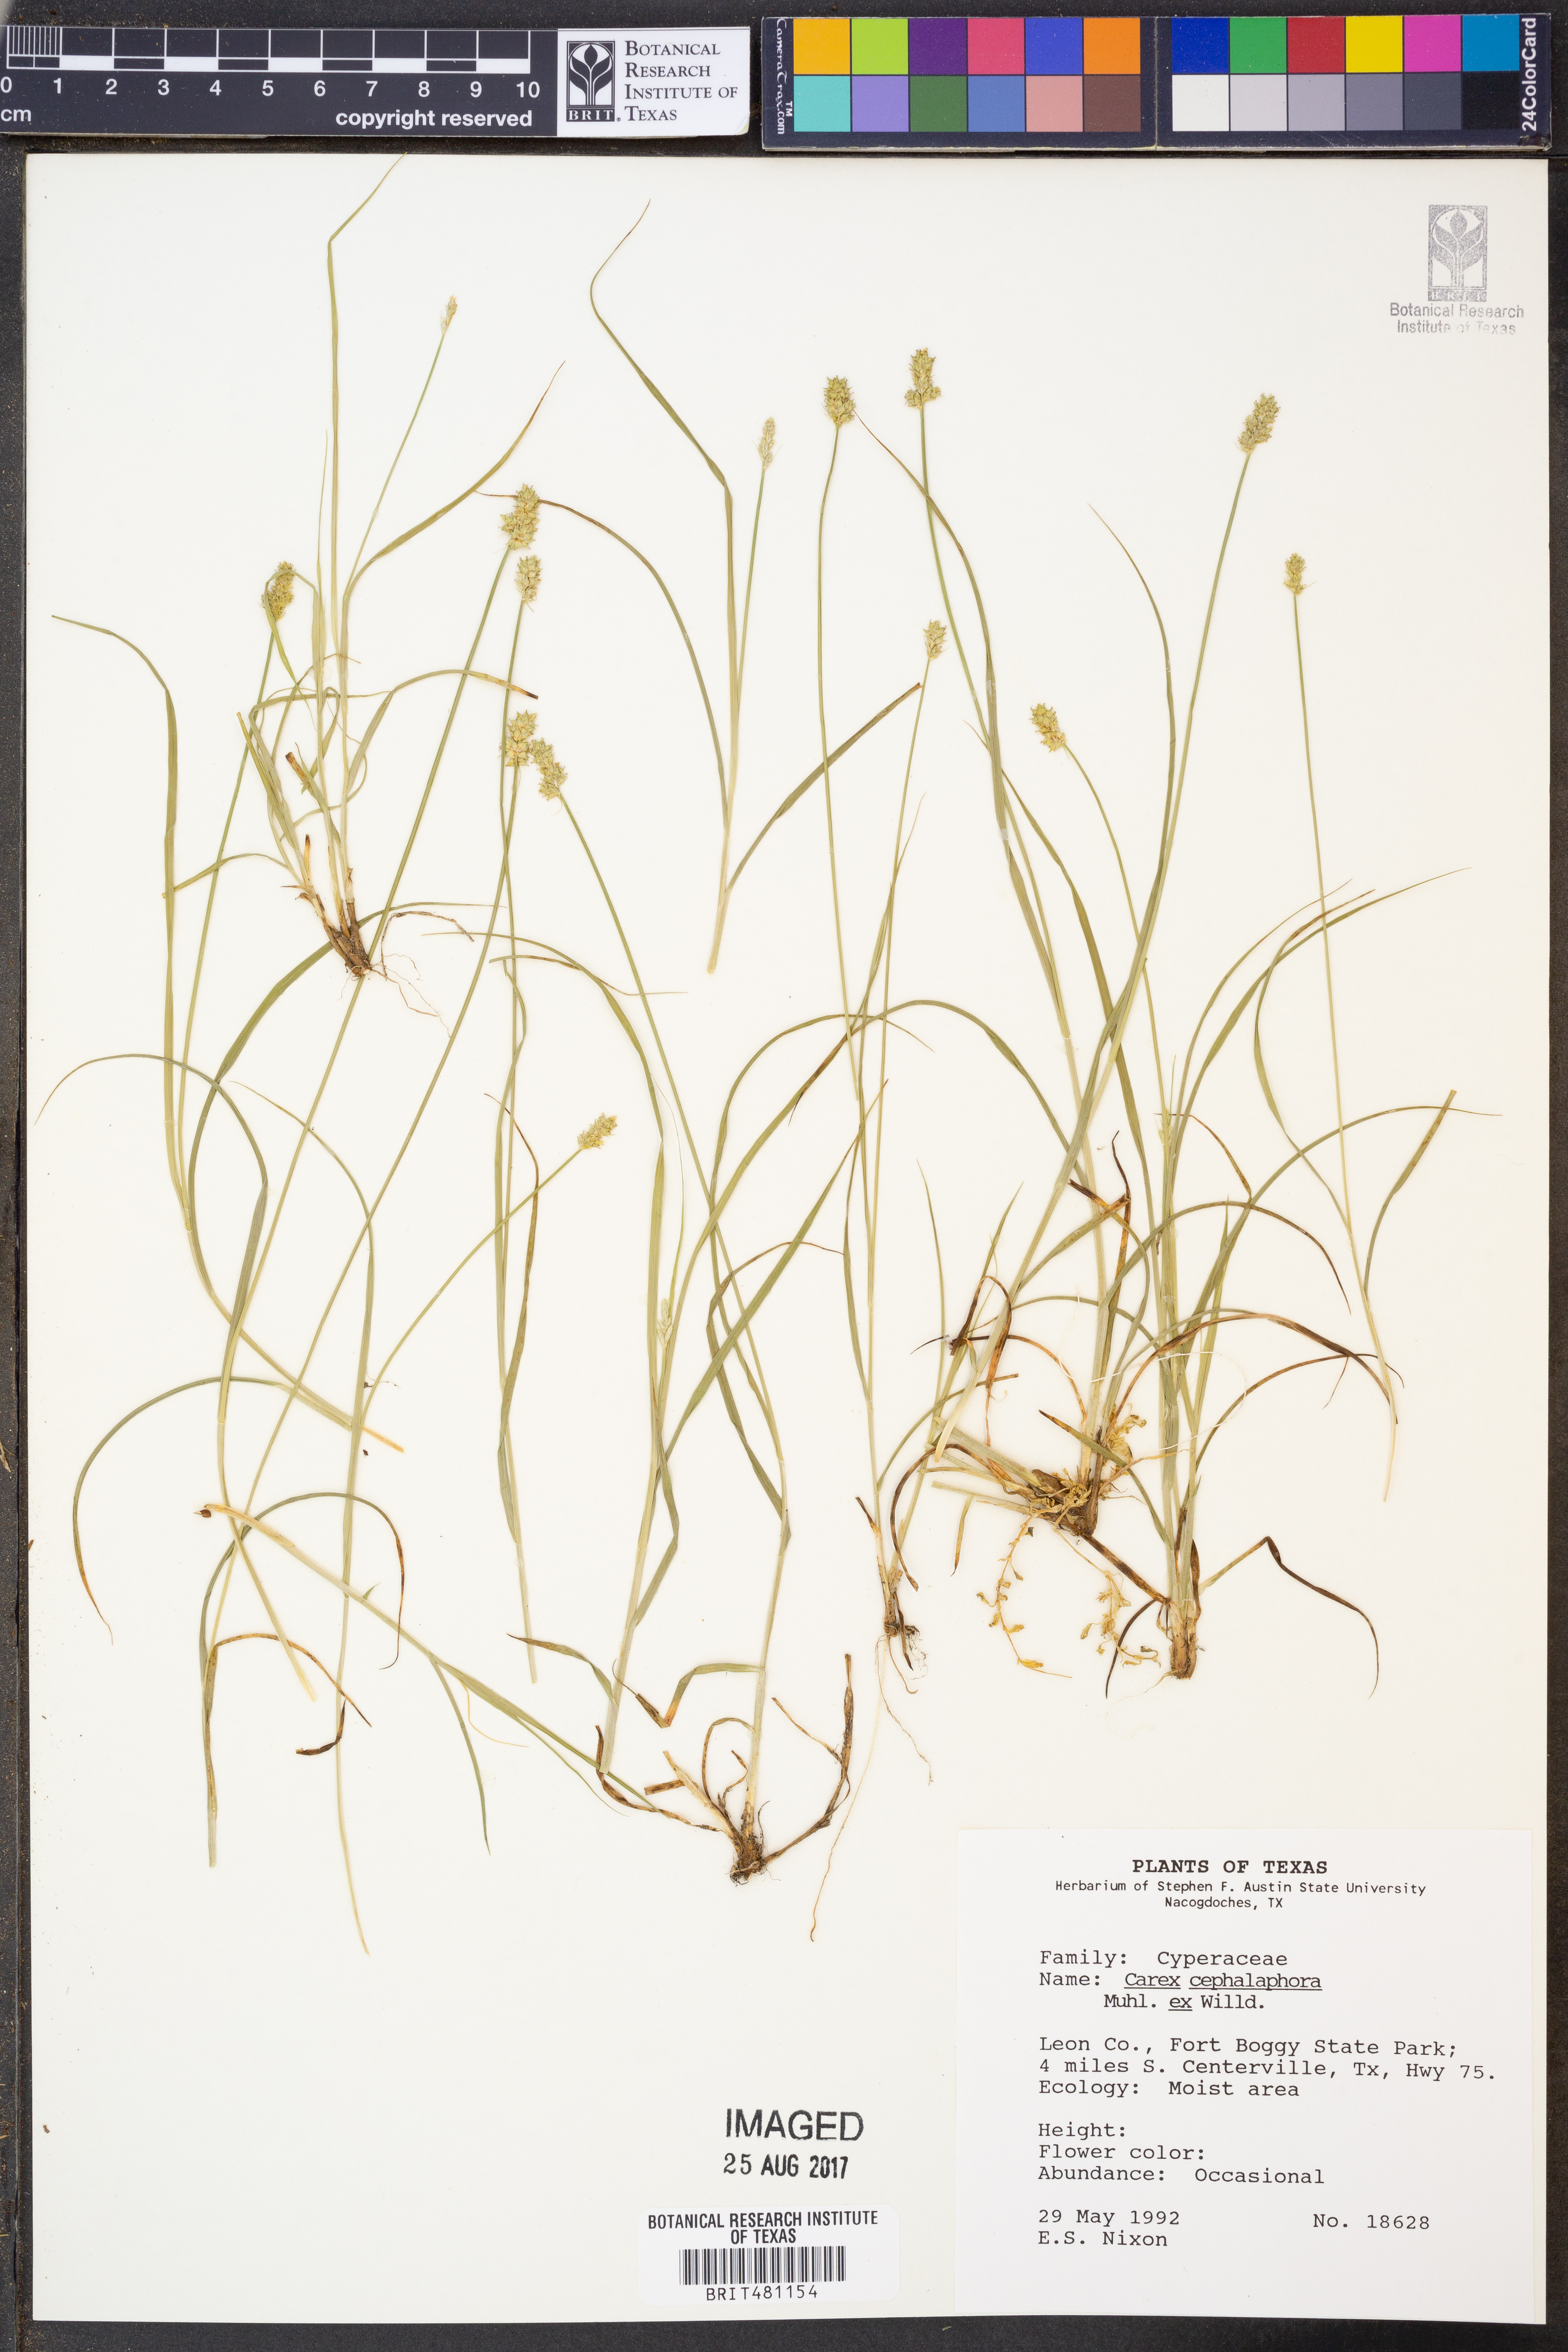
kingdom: Plantae
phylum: Tracheophyta
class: Liliopsida
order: Poales
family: Cyperaceae
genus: Carex
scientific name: Carex cephalophora
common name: Oval-headed sedge
